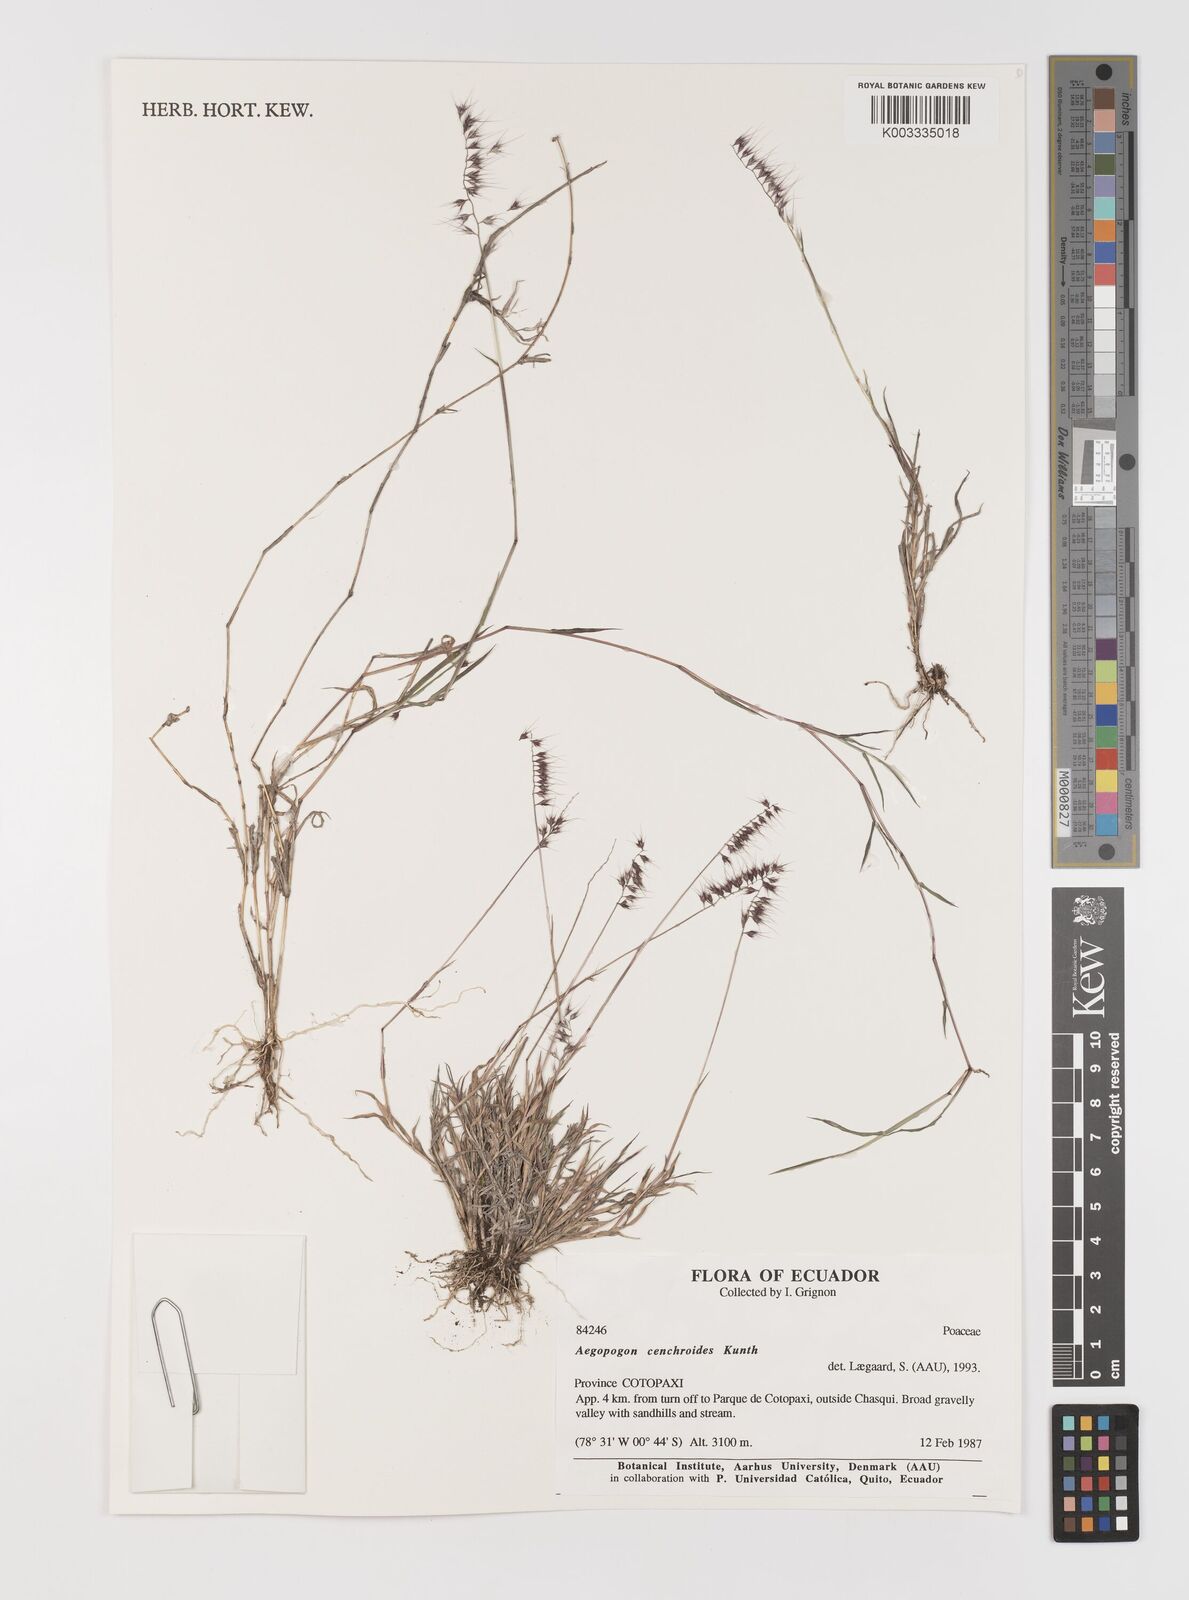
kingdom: Plantae
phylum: Tracheophyta
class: Liliopsida
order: Poales
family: Poaceae
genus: Muhlenbergia
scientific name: Muhlenbergia cenchroides
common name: Relaxgrass
